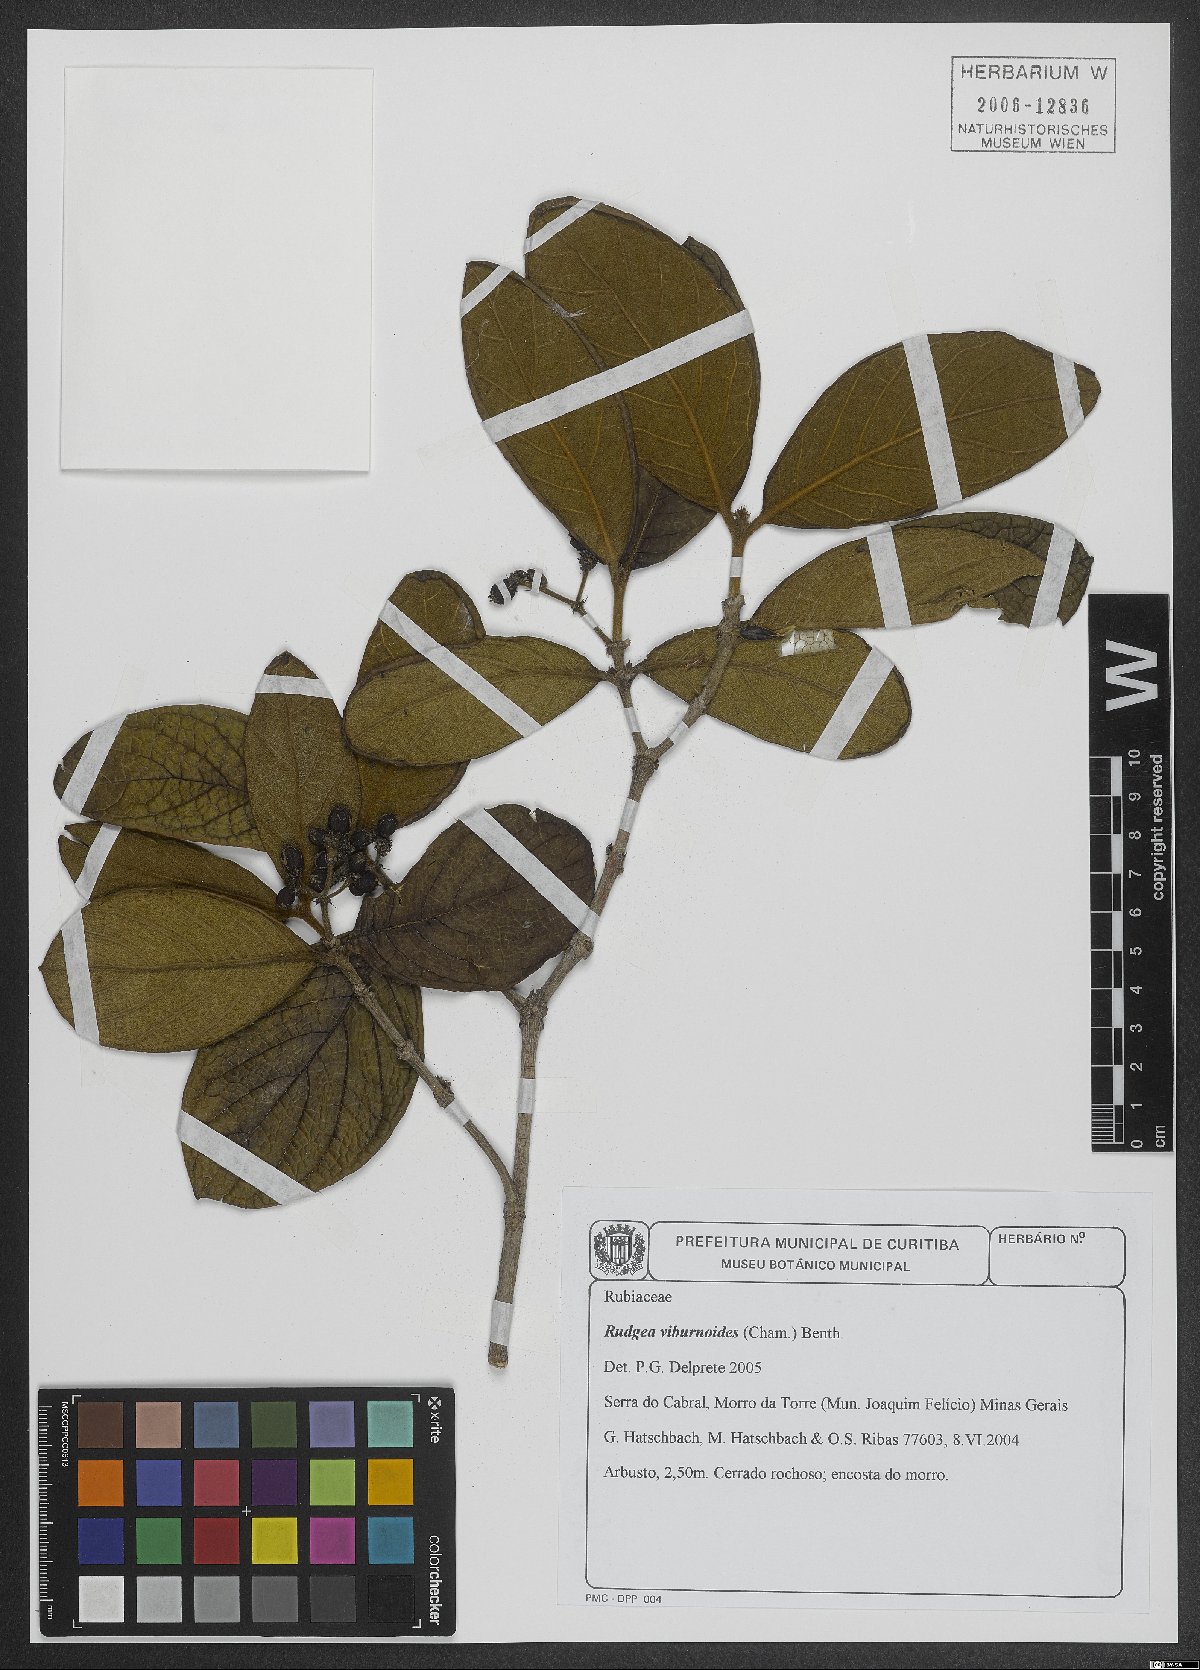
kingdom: Plantae
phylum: Tracheophyta
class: Magnoliopsida
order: Gentianales
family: Rubiaceae
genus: Rudgea
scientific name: Rudgea viburnoides
